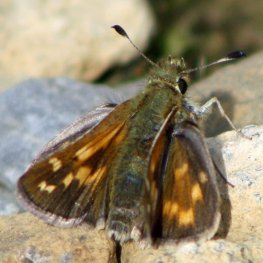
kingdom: Animalia
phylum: Arthropoda
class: Insecta
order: Lepidoptera
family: Hesperiidae
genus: Polites
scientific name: Polites coras
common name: Peck's Skipper
